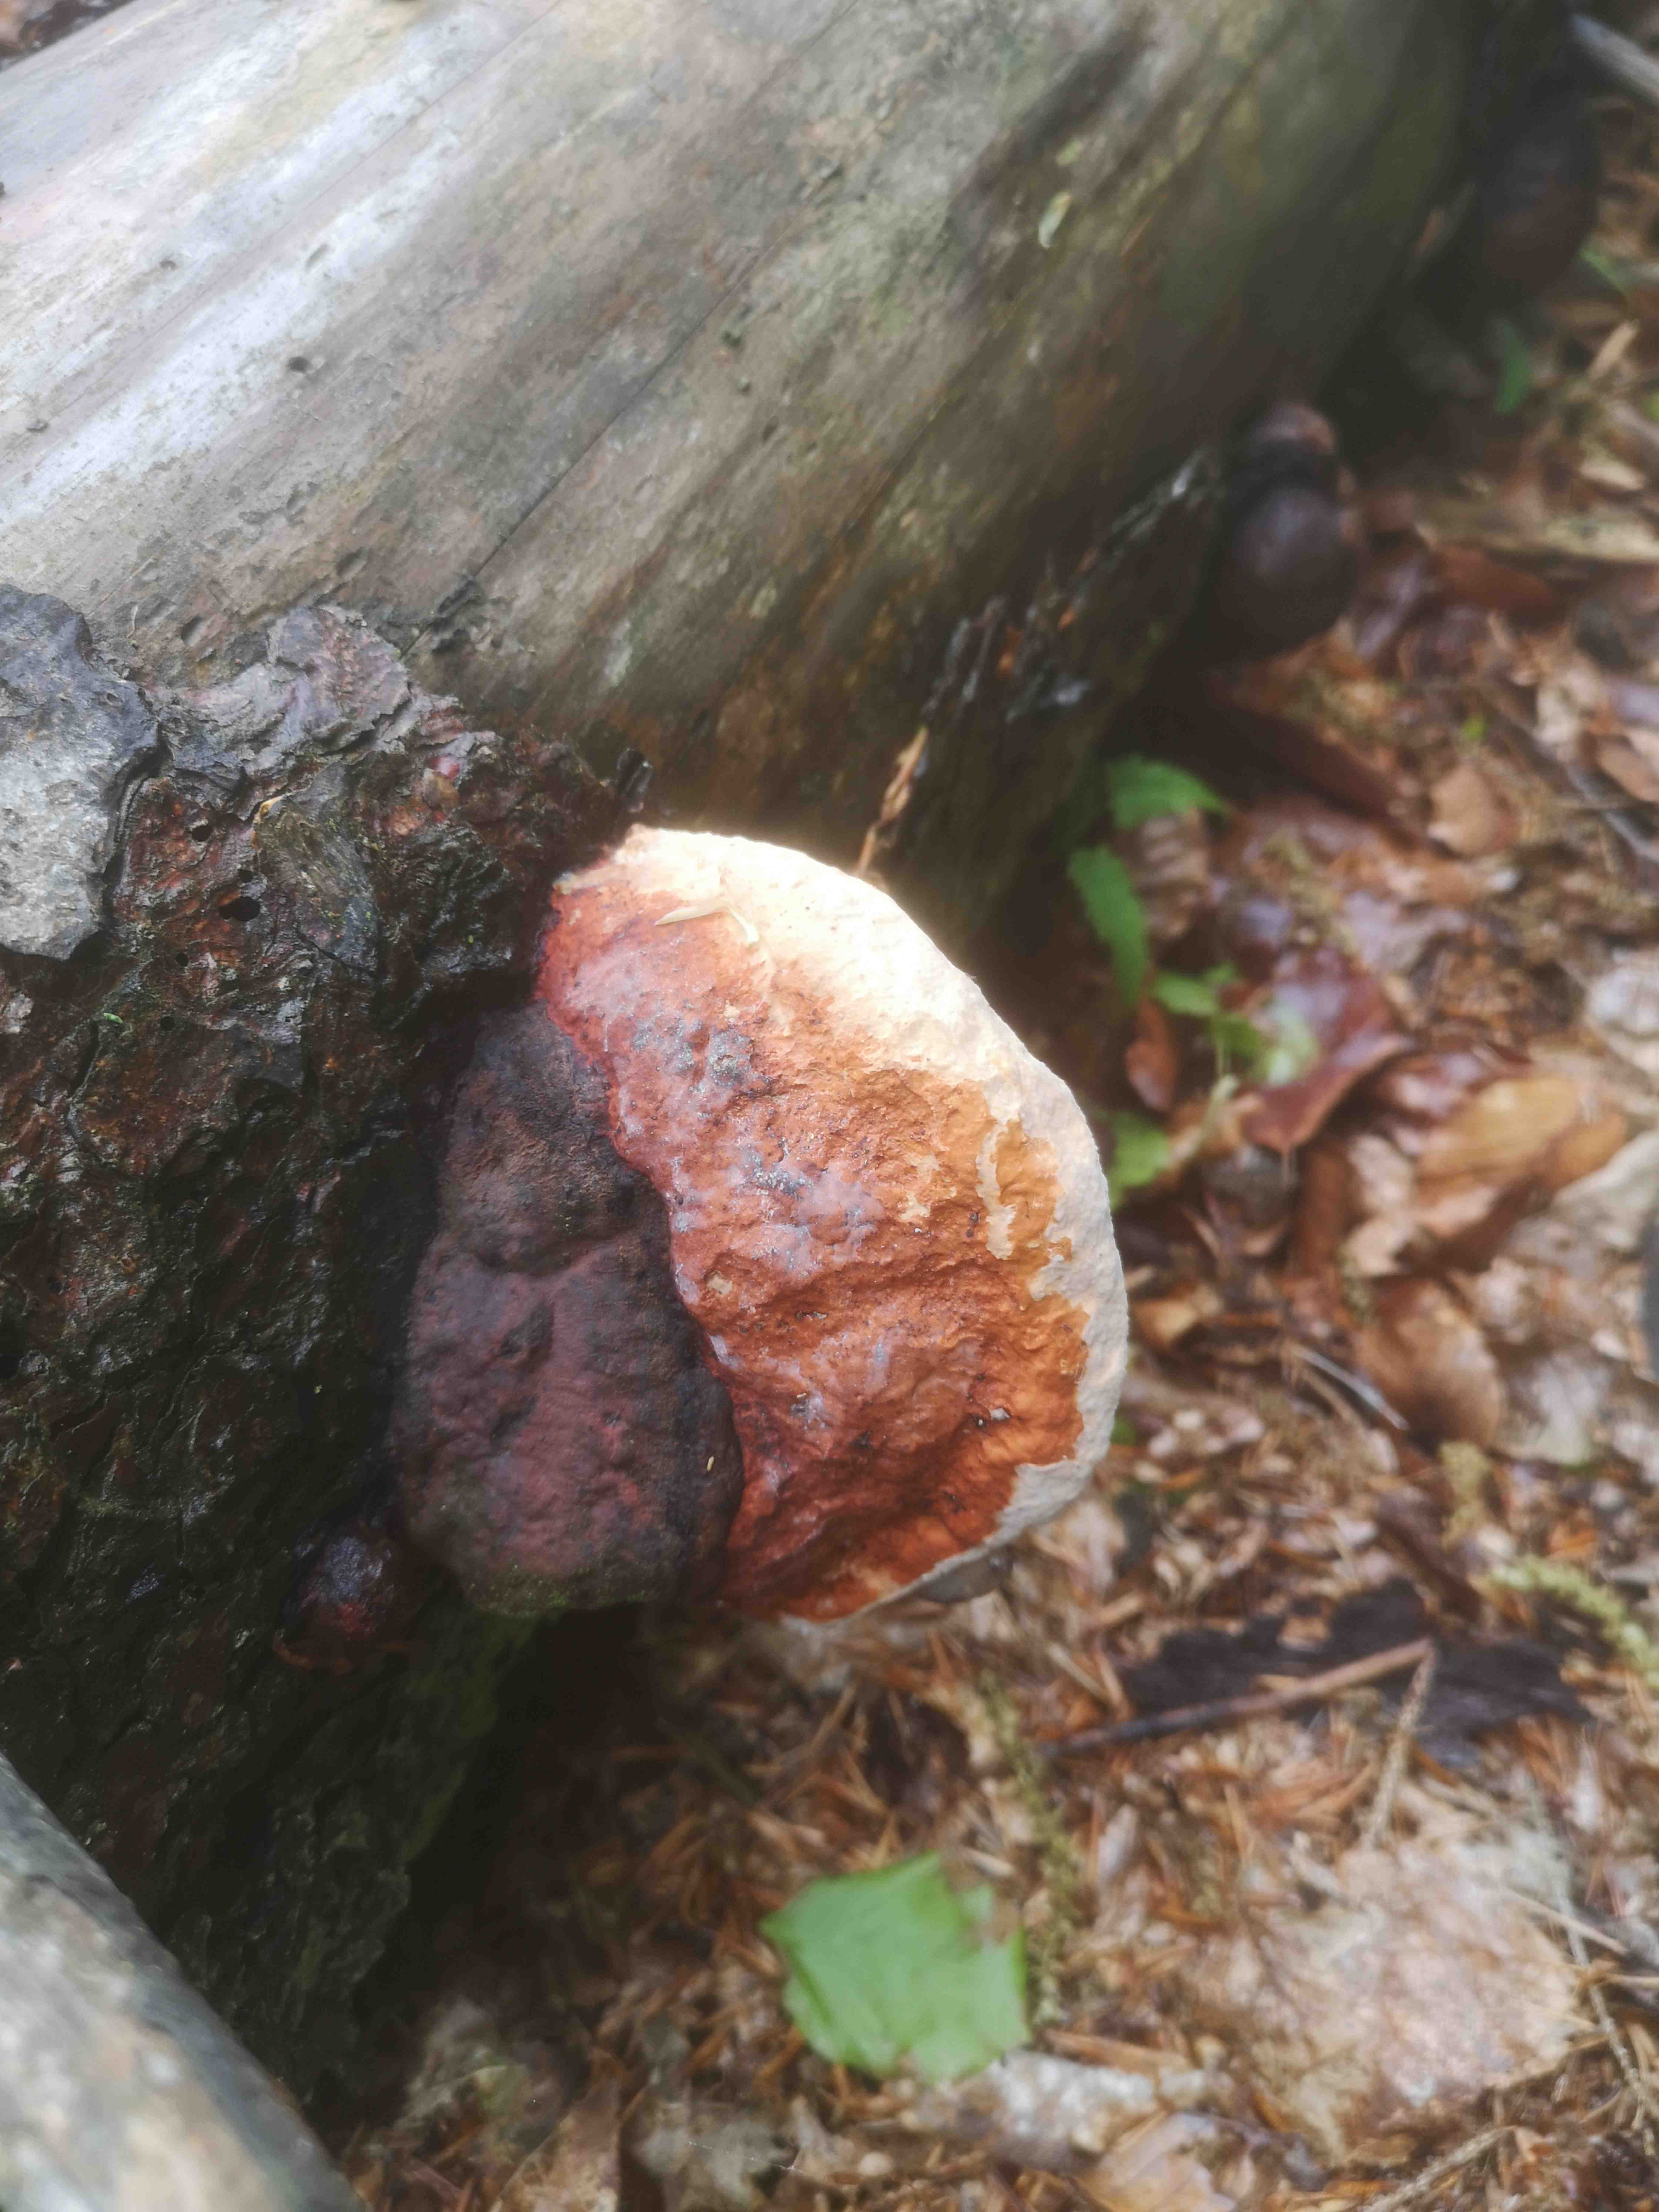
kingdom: Fungi
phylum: Basidiomycota
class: Agaricomycetes
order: Polyporales
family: Fomitopsidaceae
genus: Fomitopsis
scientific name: Fomitopsis pinicola
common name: randbæltet hovporesvamp
